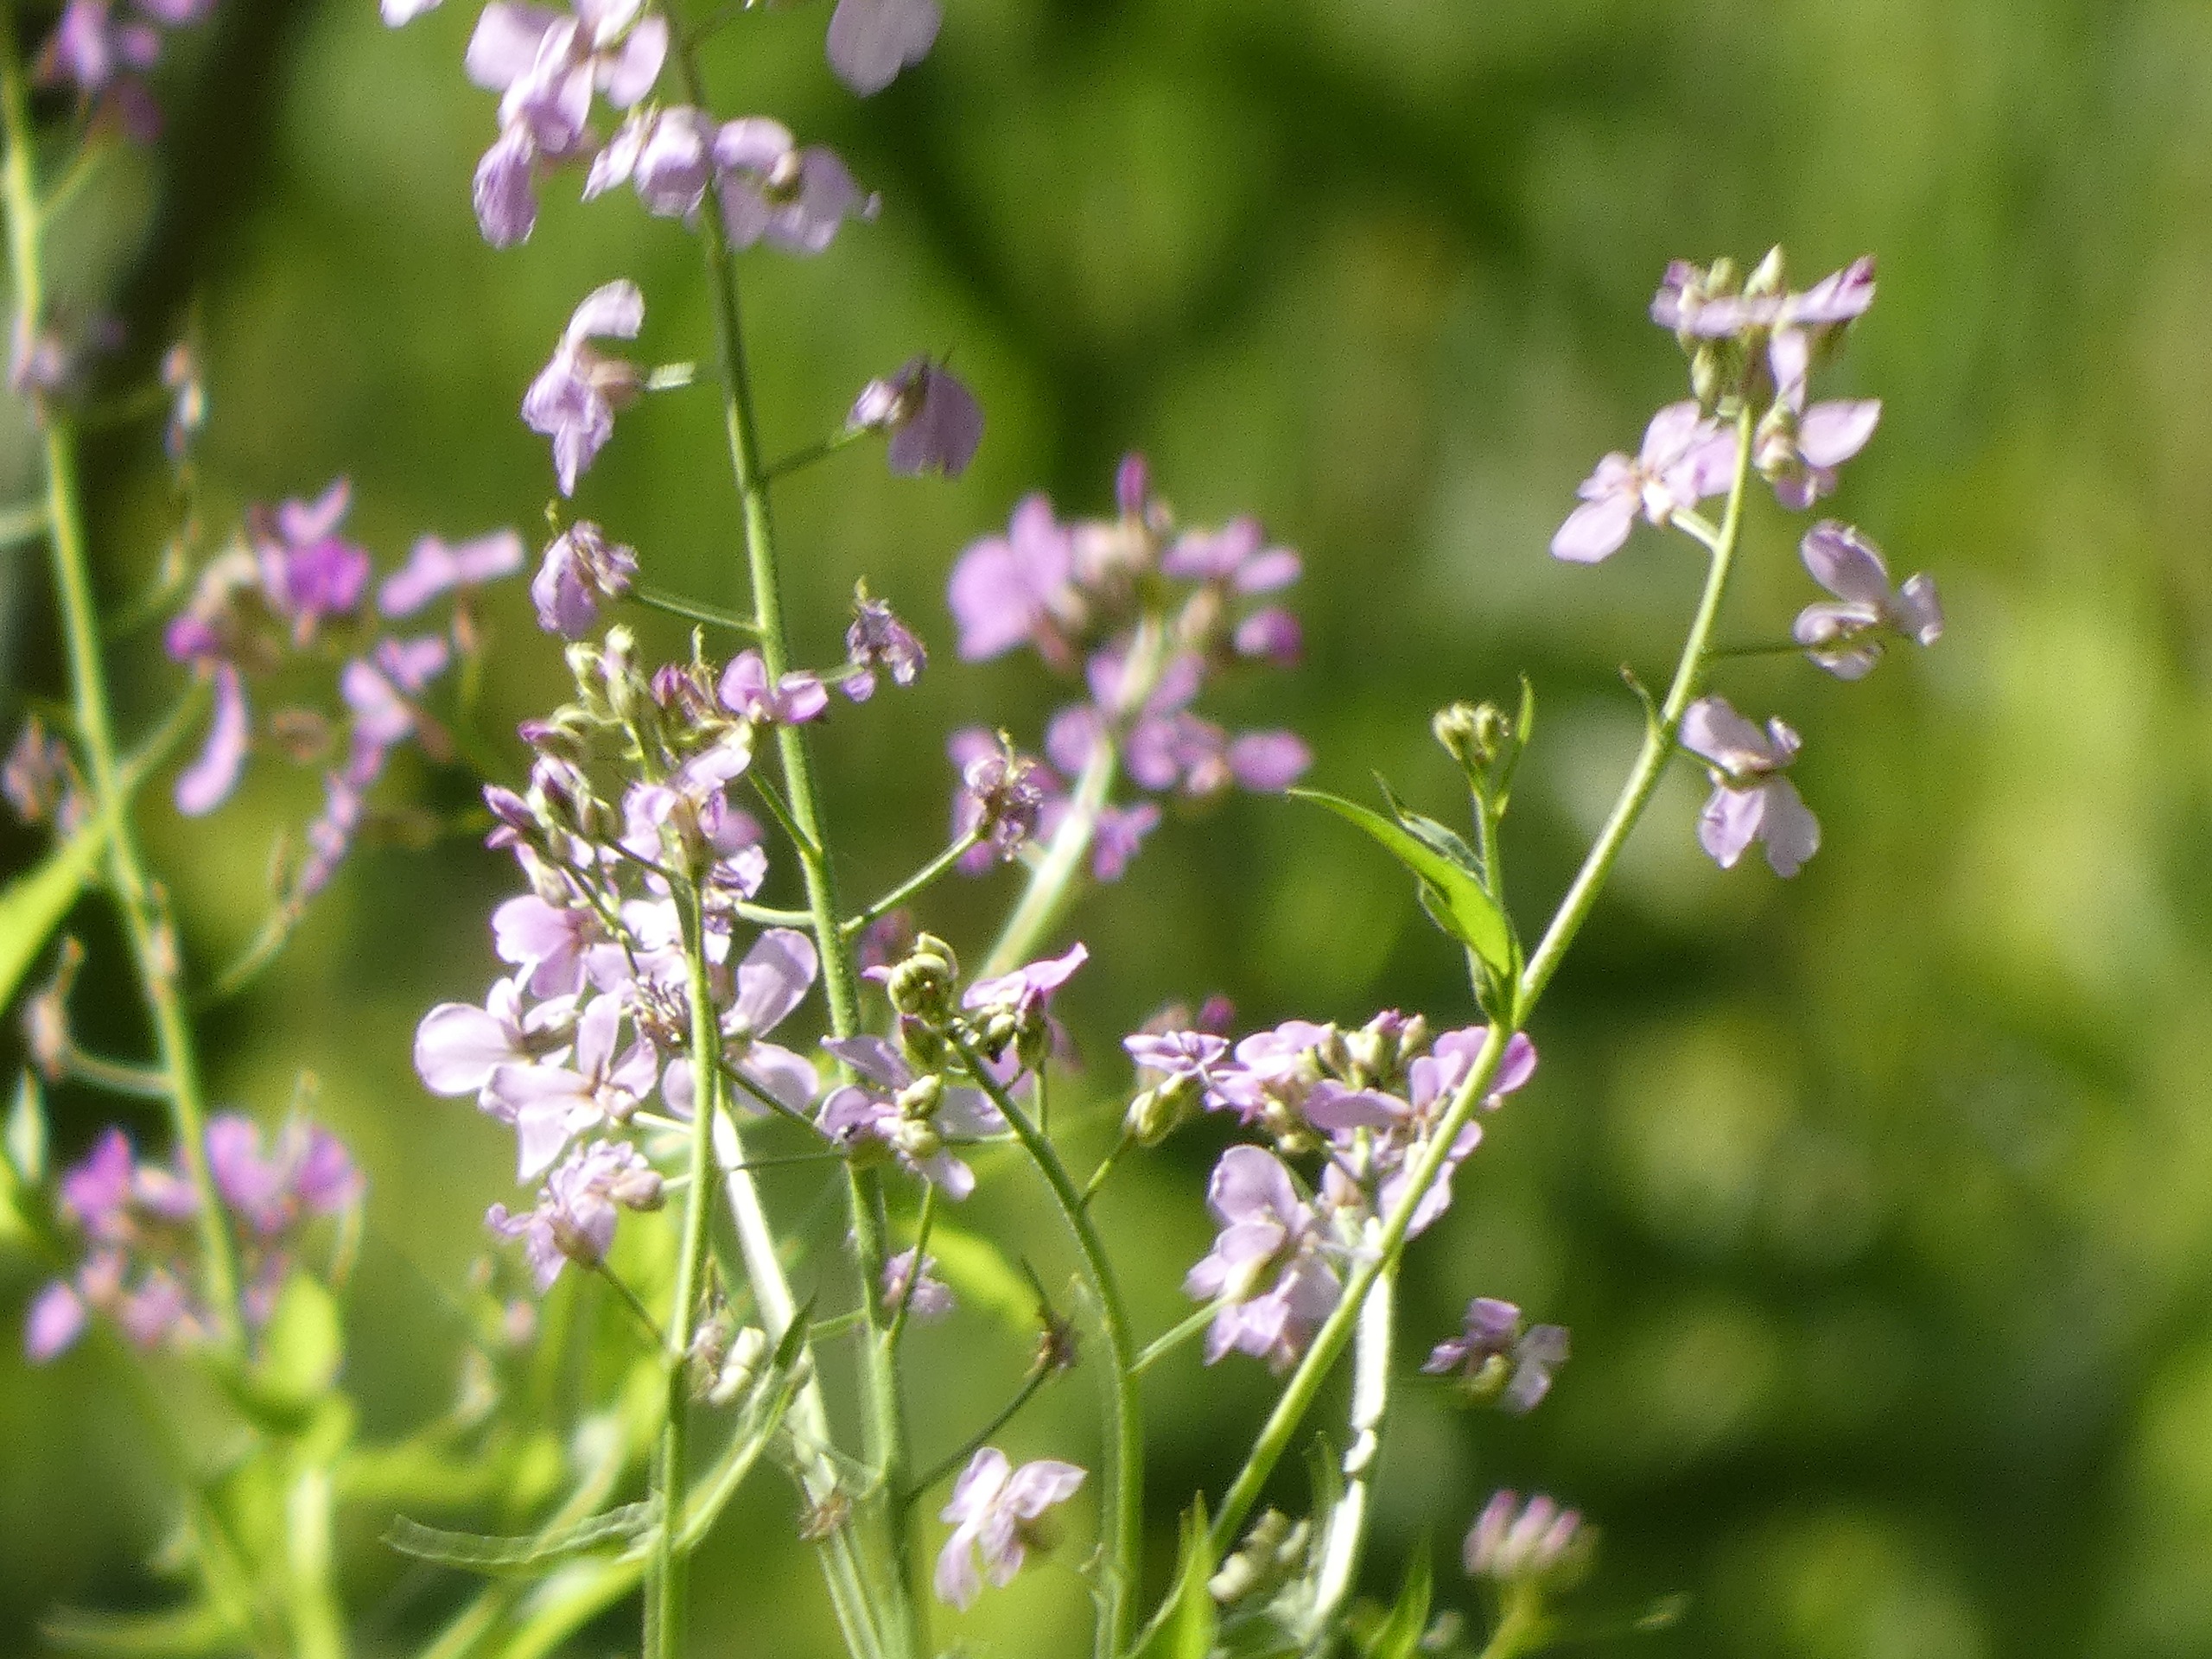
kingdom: Plantae
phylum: Tracheophyta
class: Magnoliopsida
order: Brassicales
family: Brassicaceae
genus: Hesperis
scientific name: Hesperis matronalis
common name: Aftenstjerne
